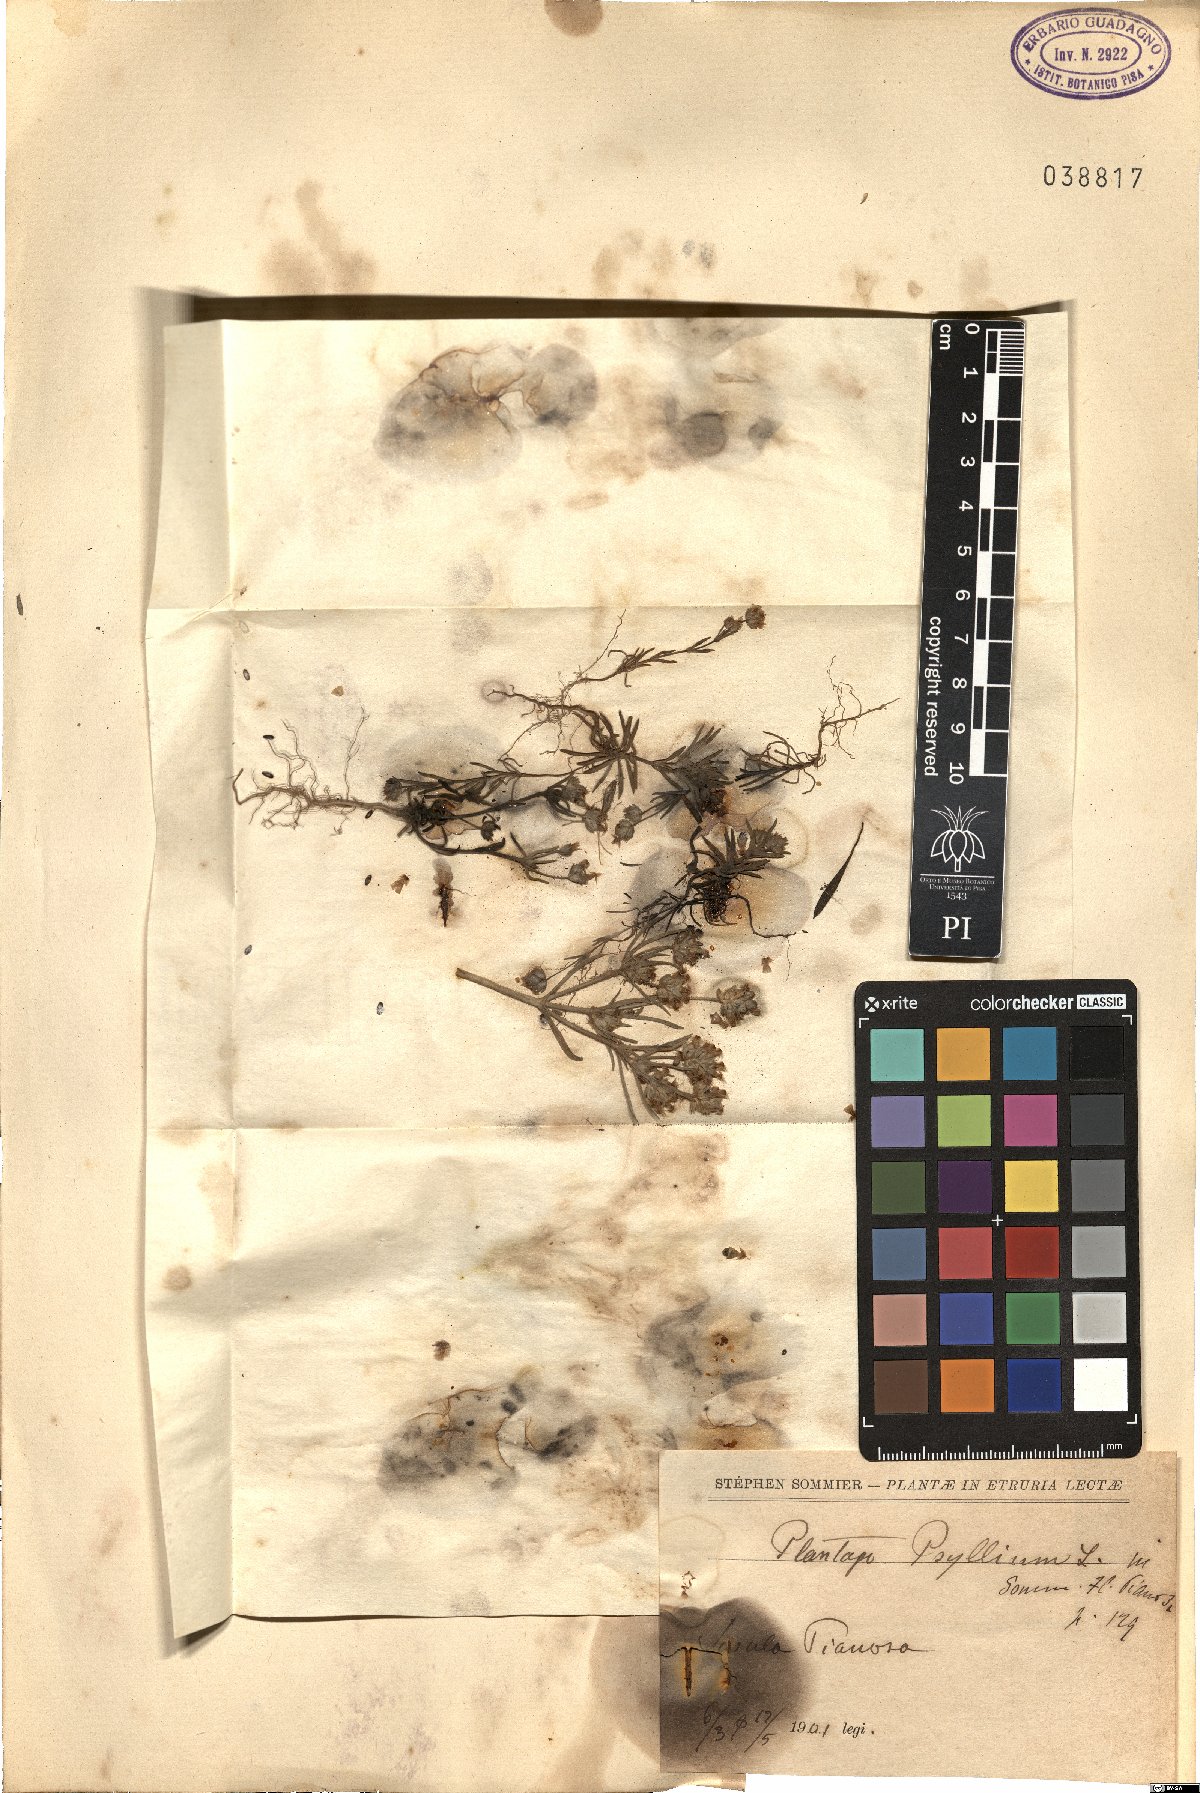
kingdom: Plantae
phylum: Tracheophyta
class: Magnoliopsida
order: Lamiales
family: Plantaginaceae
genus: Plantago
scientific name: Plantago
